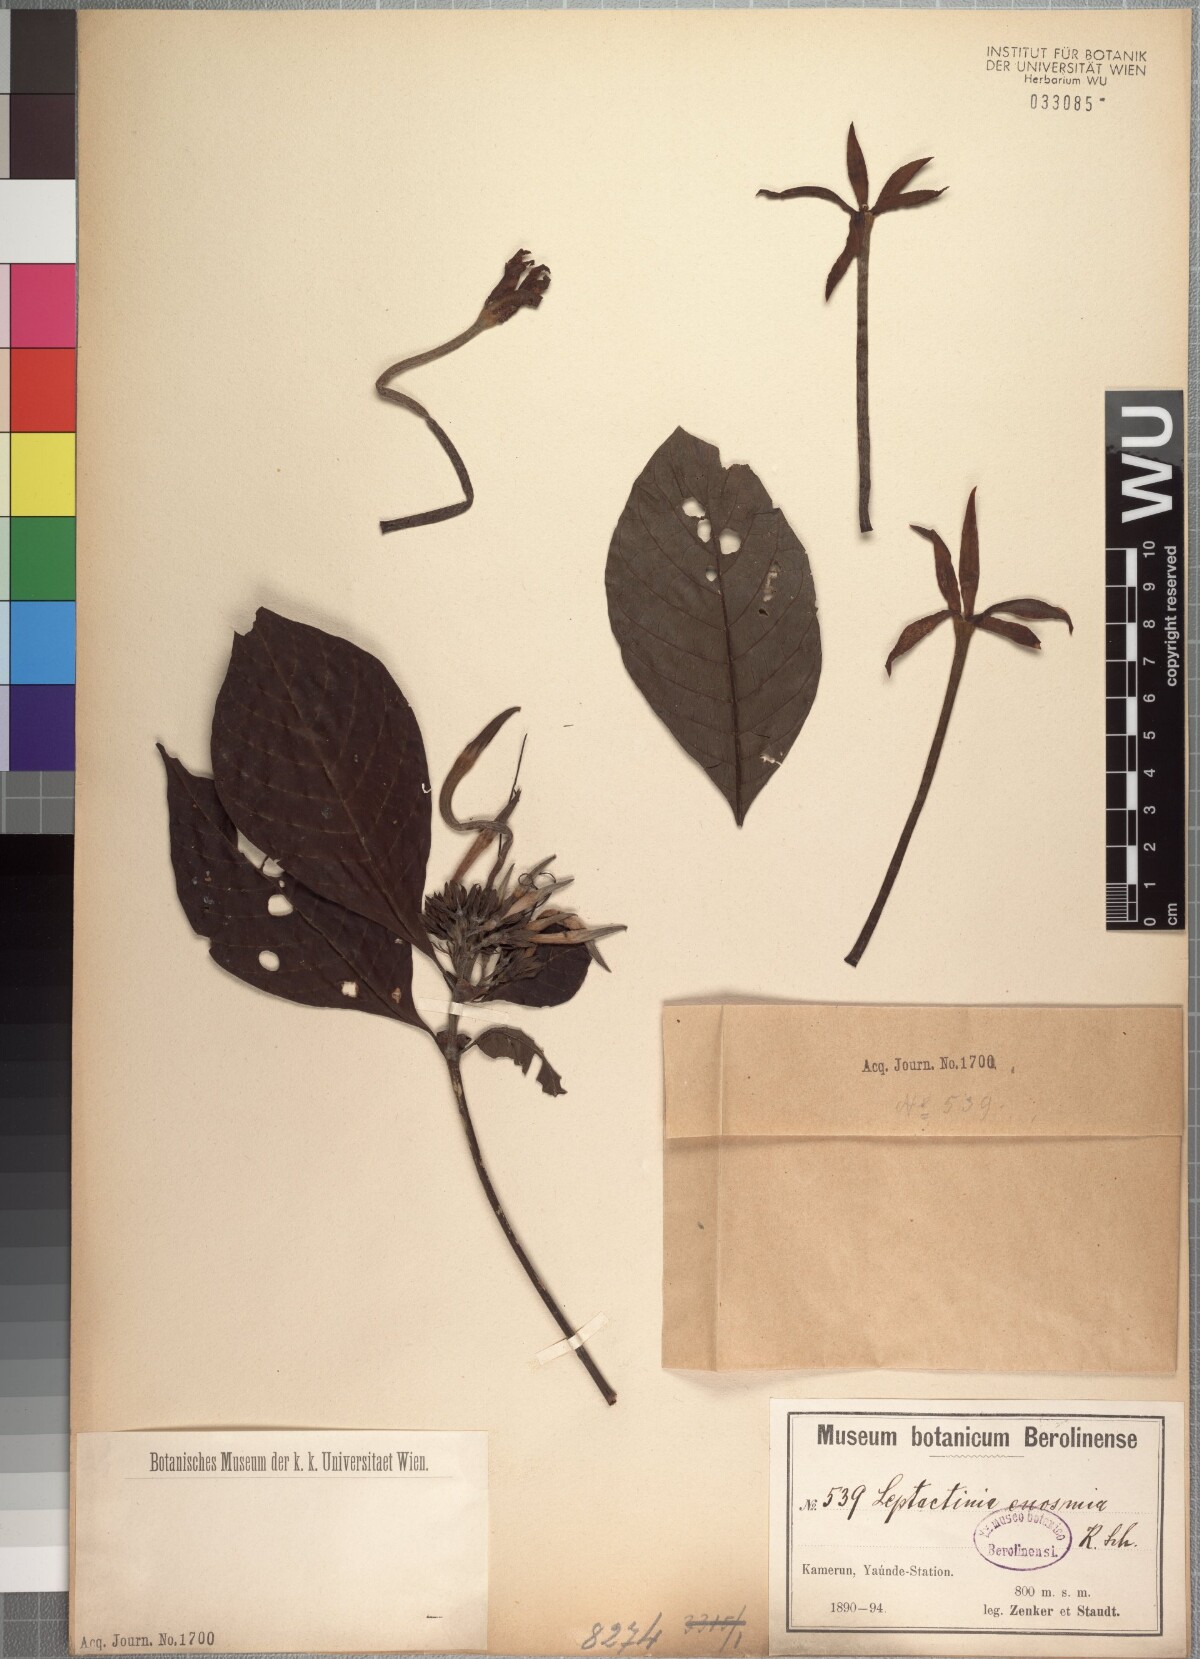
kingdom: Plantae
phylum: Tracheophyta
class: Magnoliopsida
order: Gentianales
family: Rubiaceae
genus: Leptactina
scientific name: Leptactina involucrata
